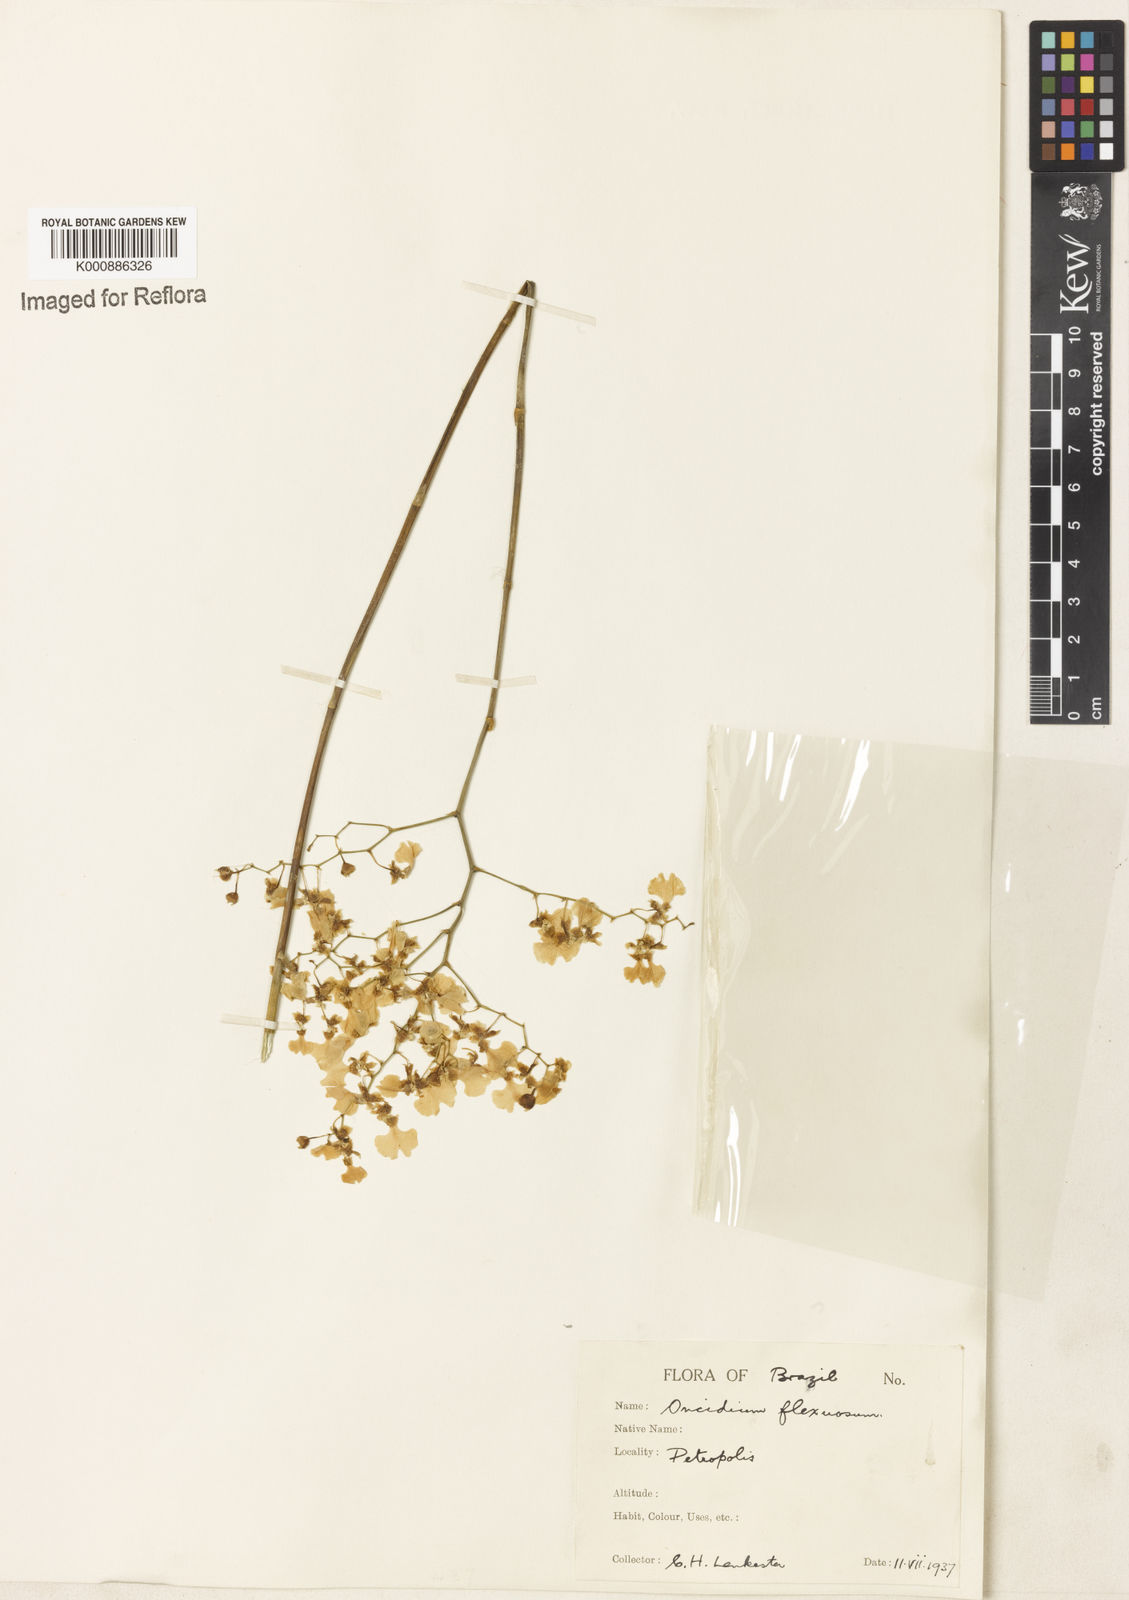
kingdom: Plantae
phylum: Tracheophyta
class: Liliopsida
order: Asparagales
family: Orchidaceae
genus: Gomesa
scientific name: Gomesa flexuosa
